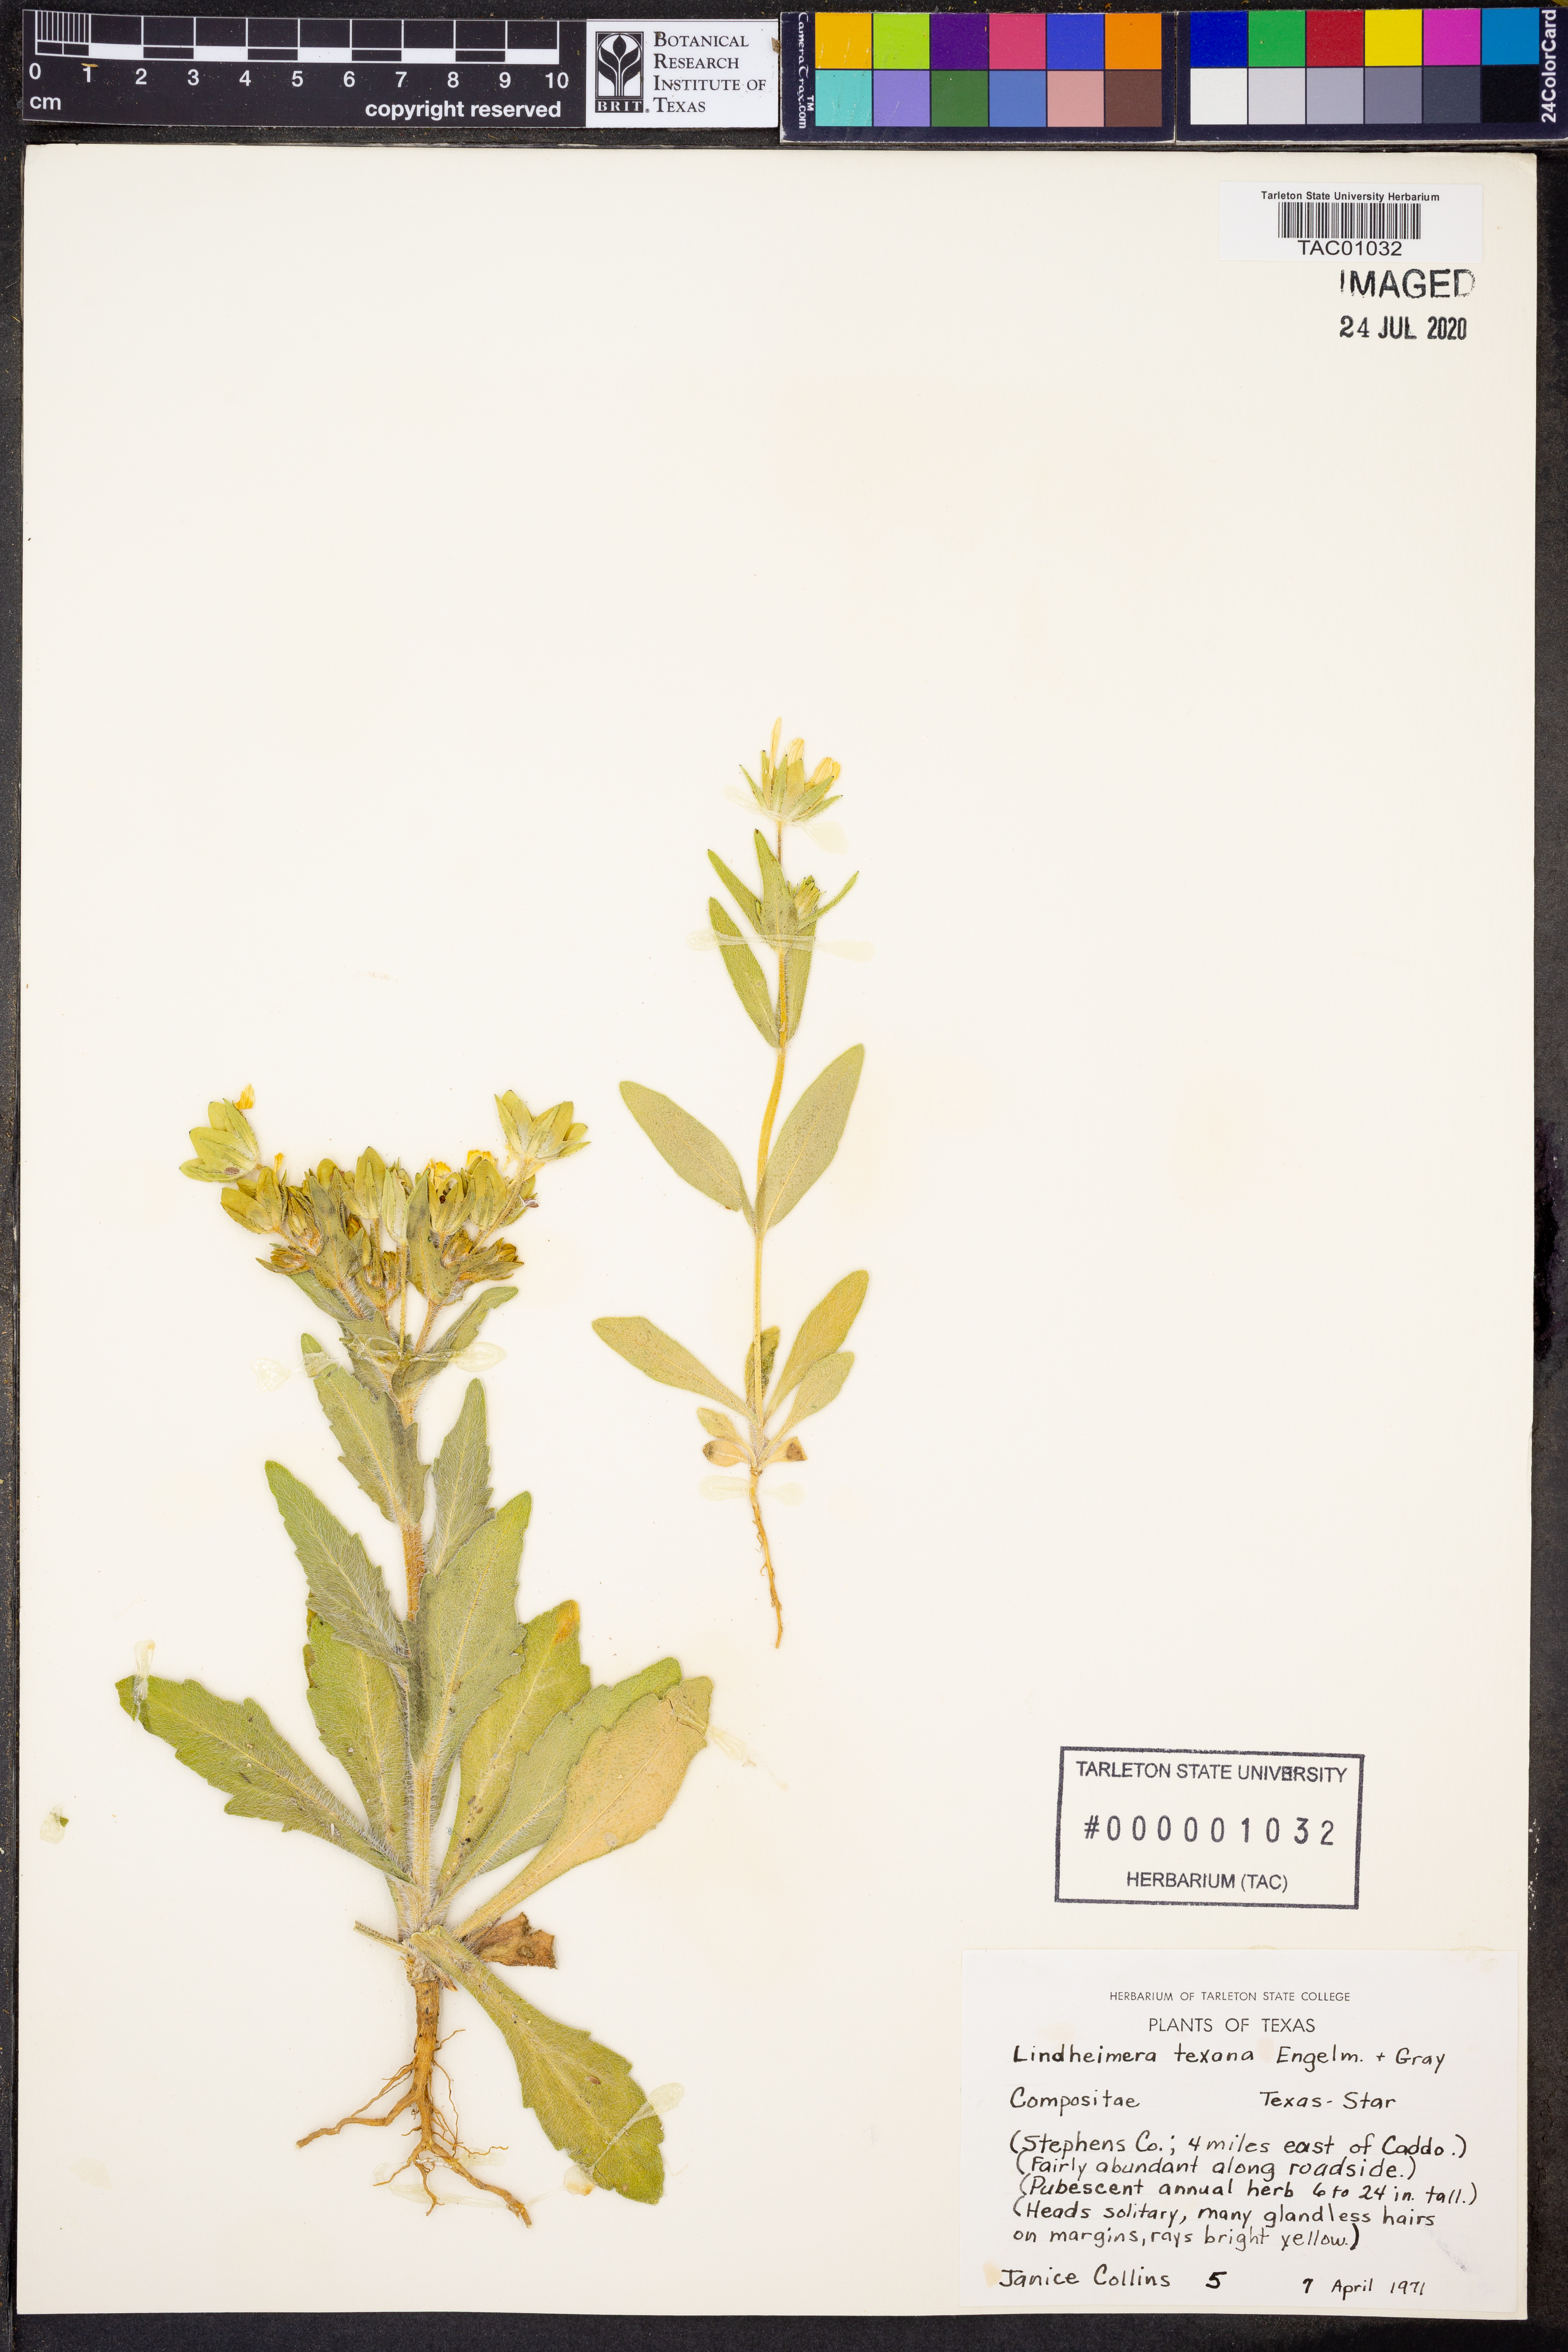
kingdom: Plantae
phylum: Tracheophyta
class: Magnoliopsida
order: Asterales
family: Asteraceae
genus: Lindheimera
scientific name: Lindheimera texana
